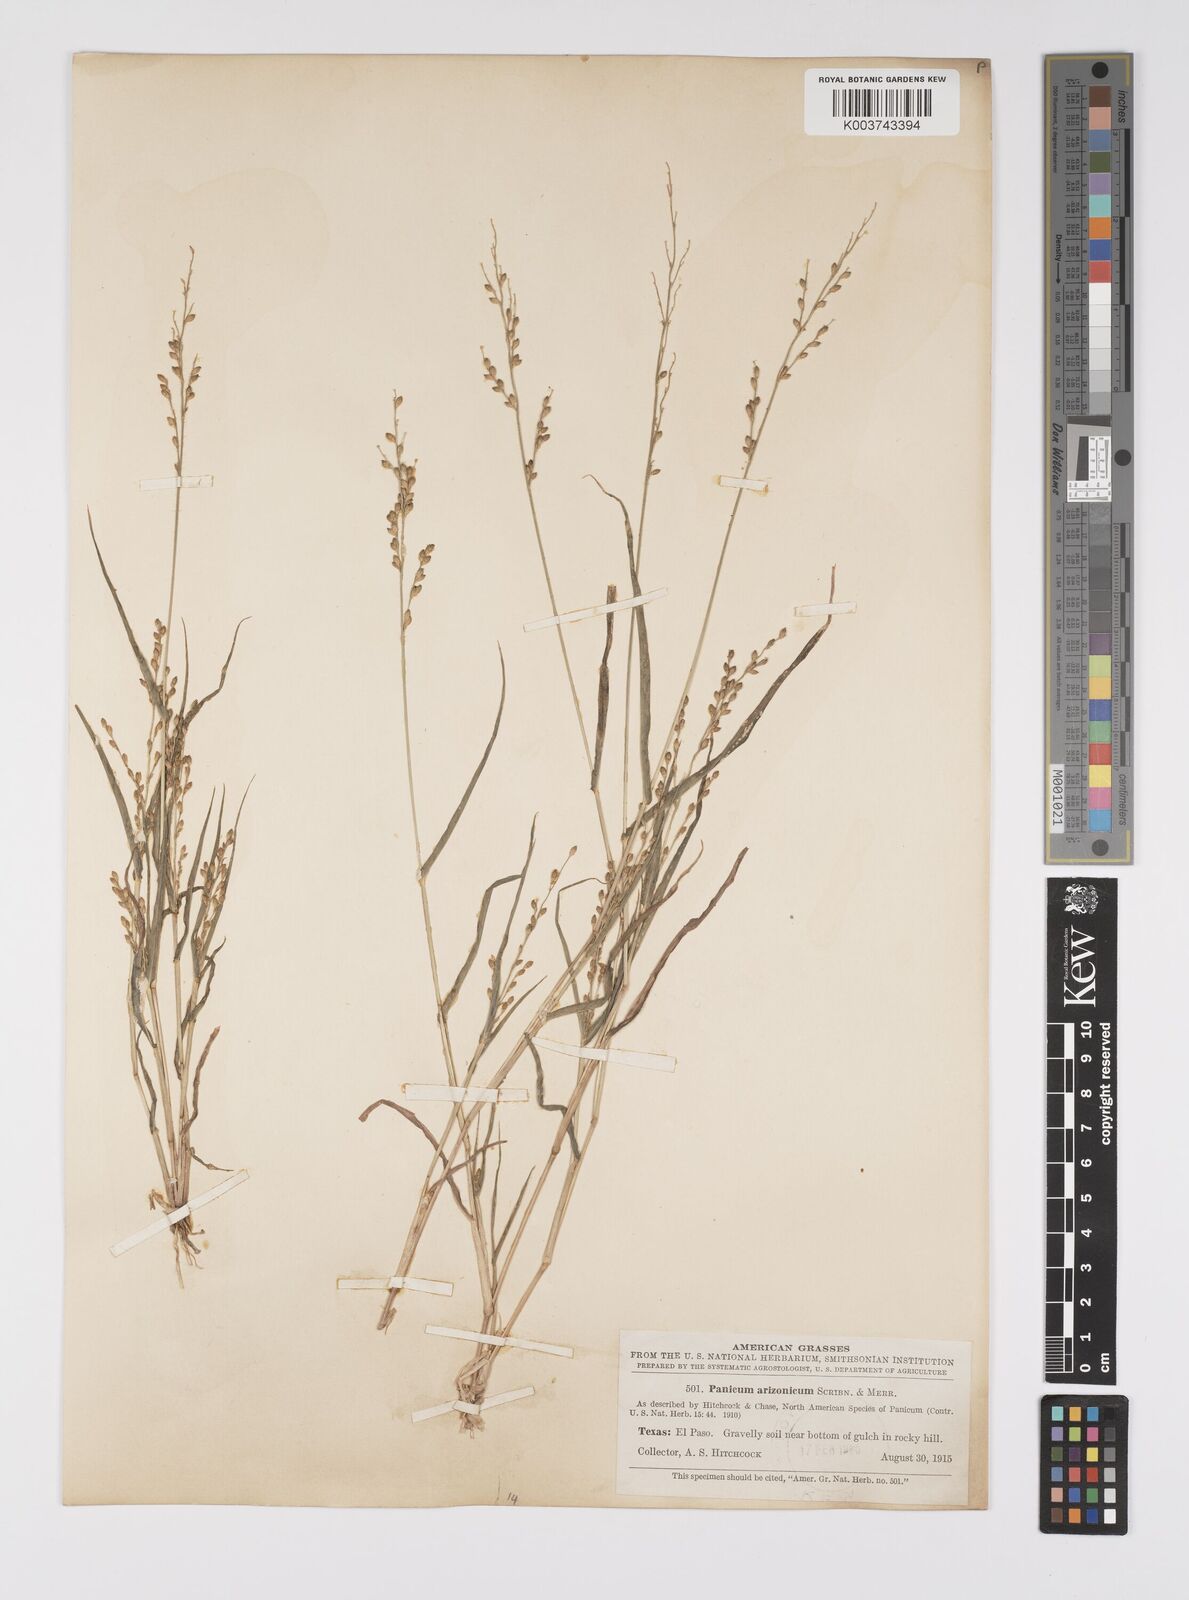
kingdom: Plantae
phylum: Tracheophyta
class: Liliopsida
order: Poales
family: Poaceae
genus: Urochloa
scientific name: Urochloa arizonica
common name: Arizona signal grass
